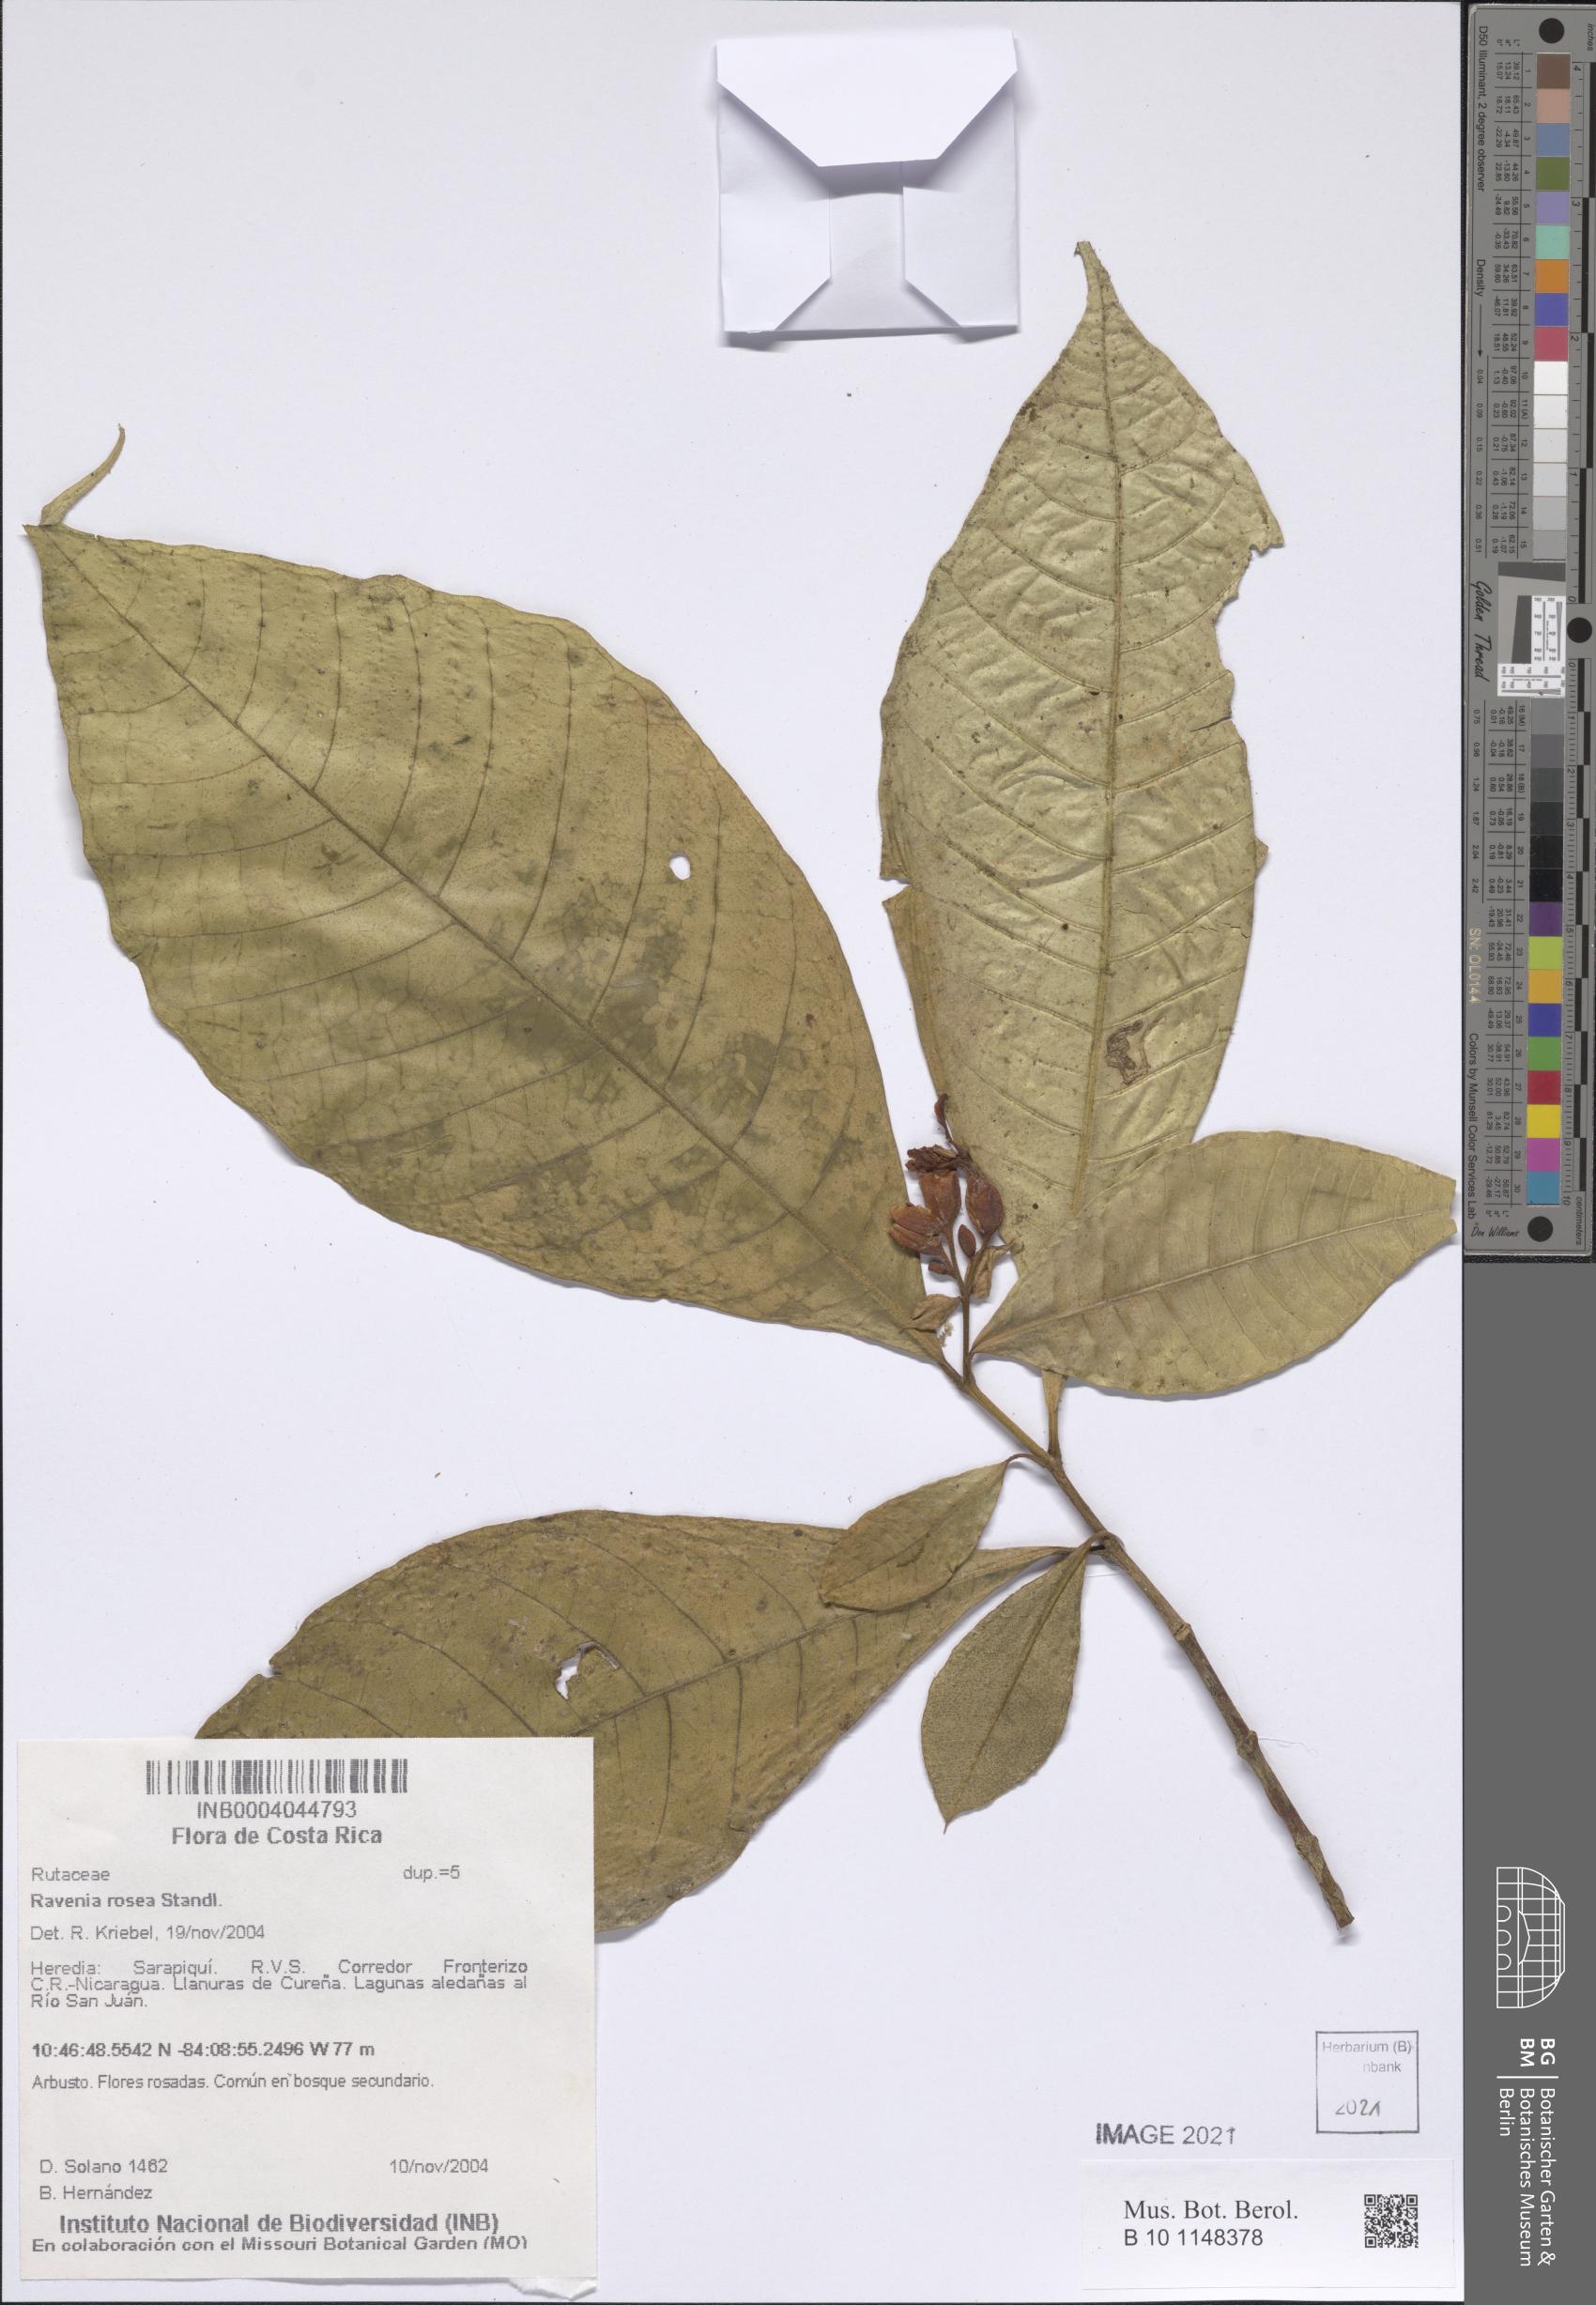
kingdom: Plantae
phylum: Tracheophyta
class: Magnoliopsida
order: Sapindales
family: Rutaceae
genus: Ravenia
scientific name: Ravenia rosea
